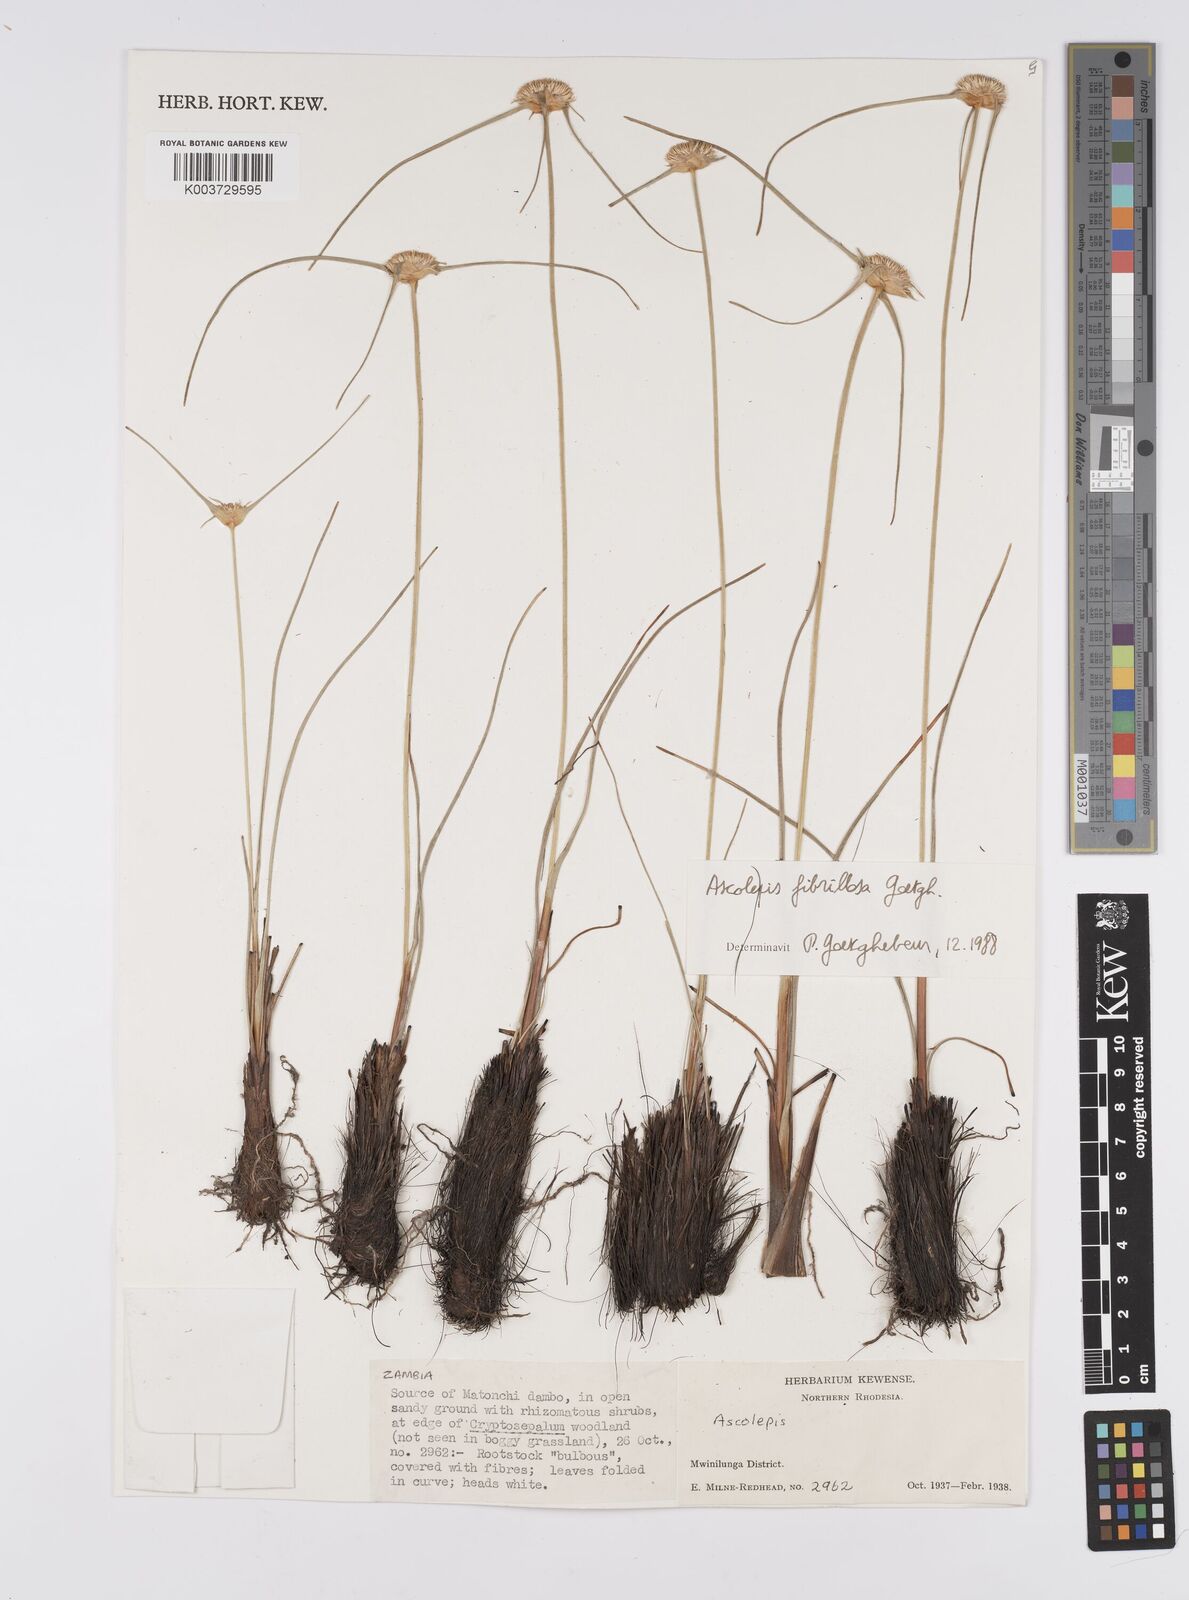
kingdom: Plantae
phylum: Tracheophyta
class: Liliopsida
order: Poales
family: Cyperaceae
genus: Cyperus
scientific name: Cyperus
